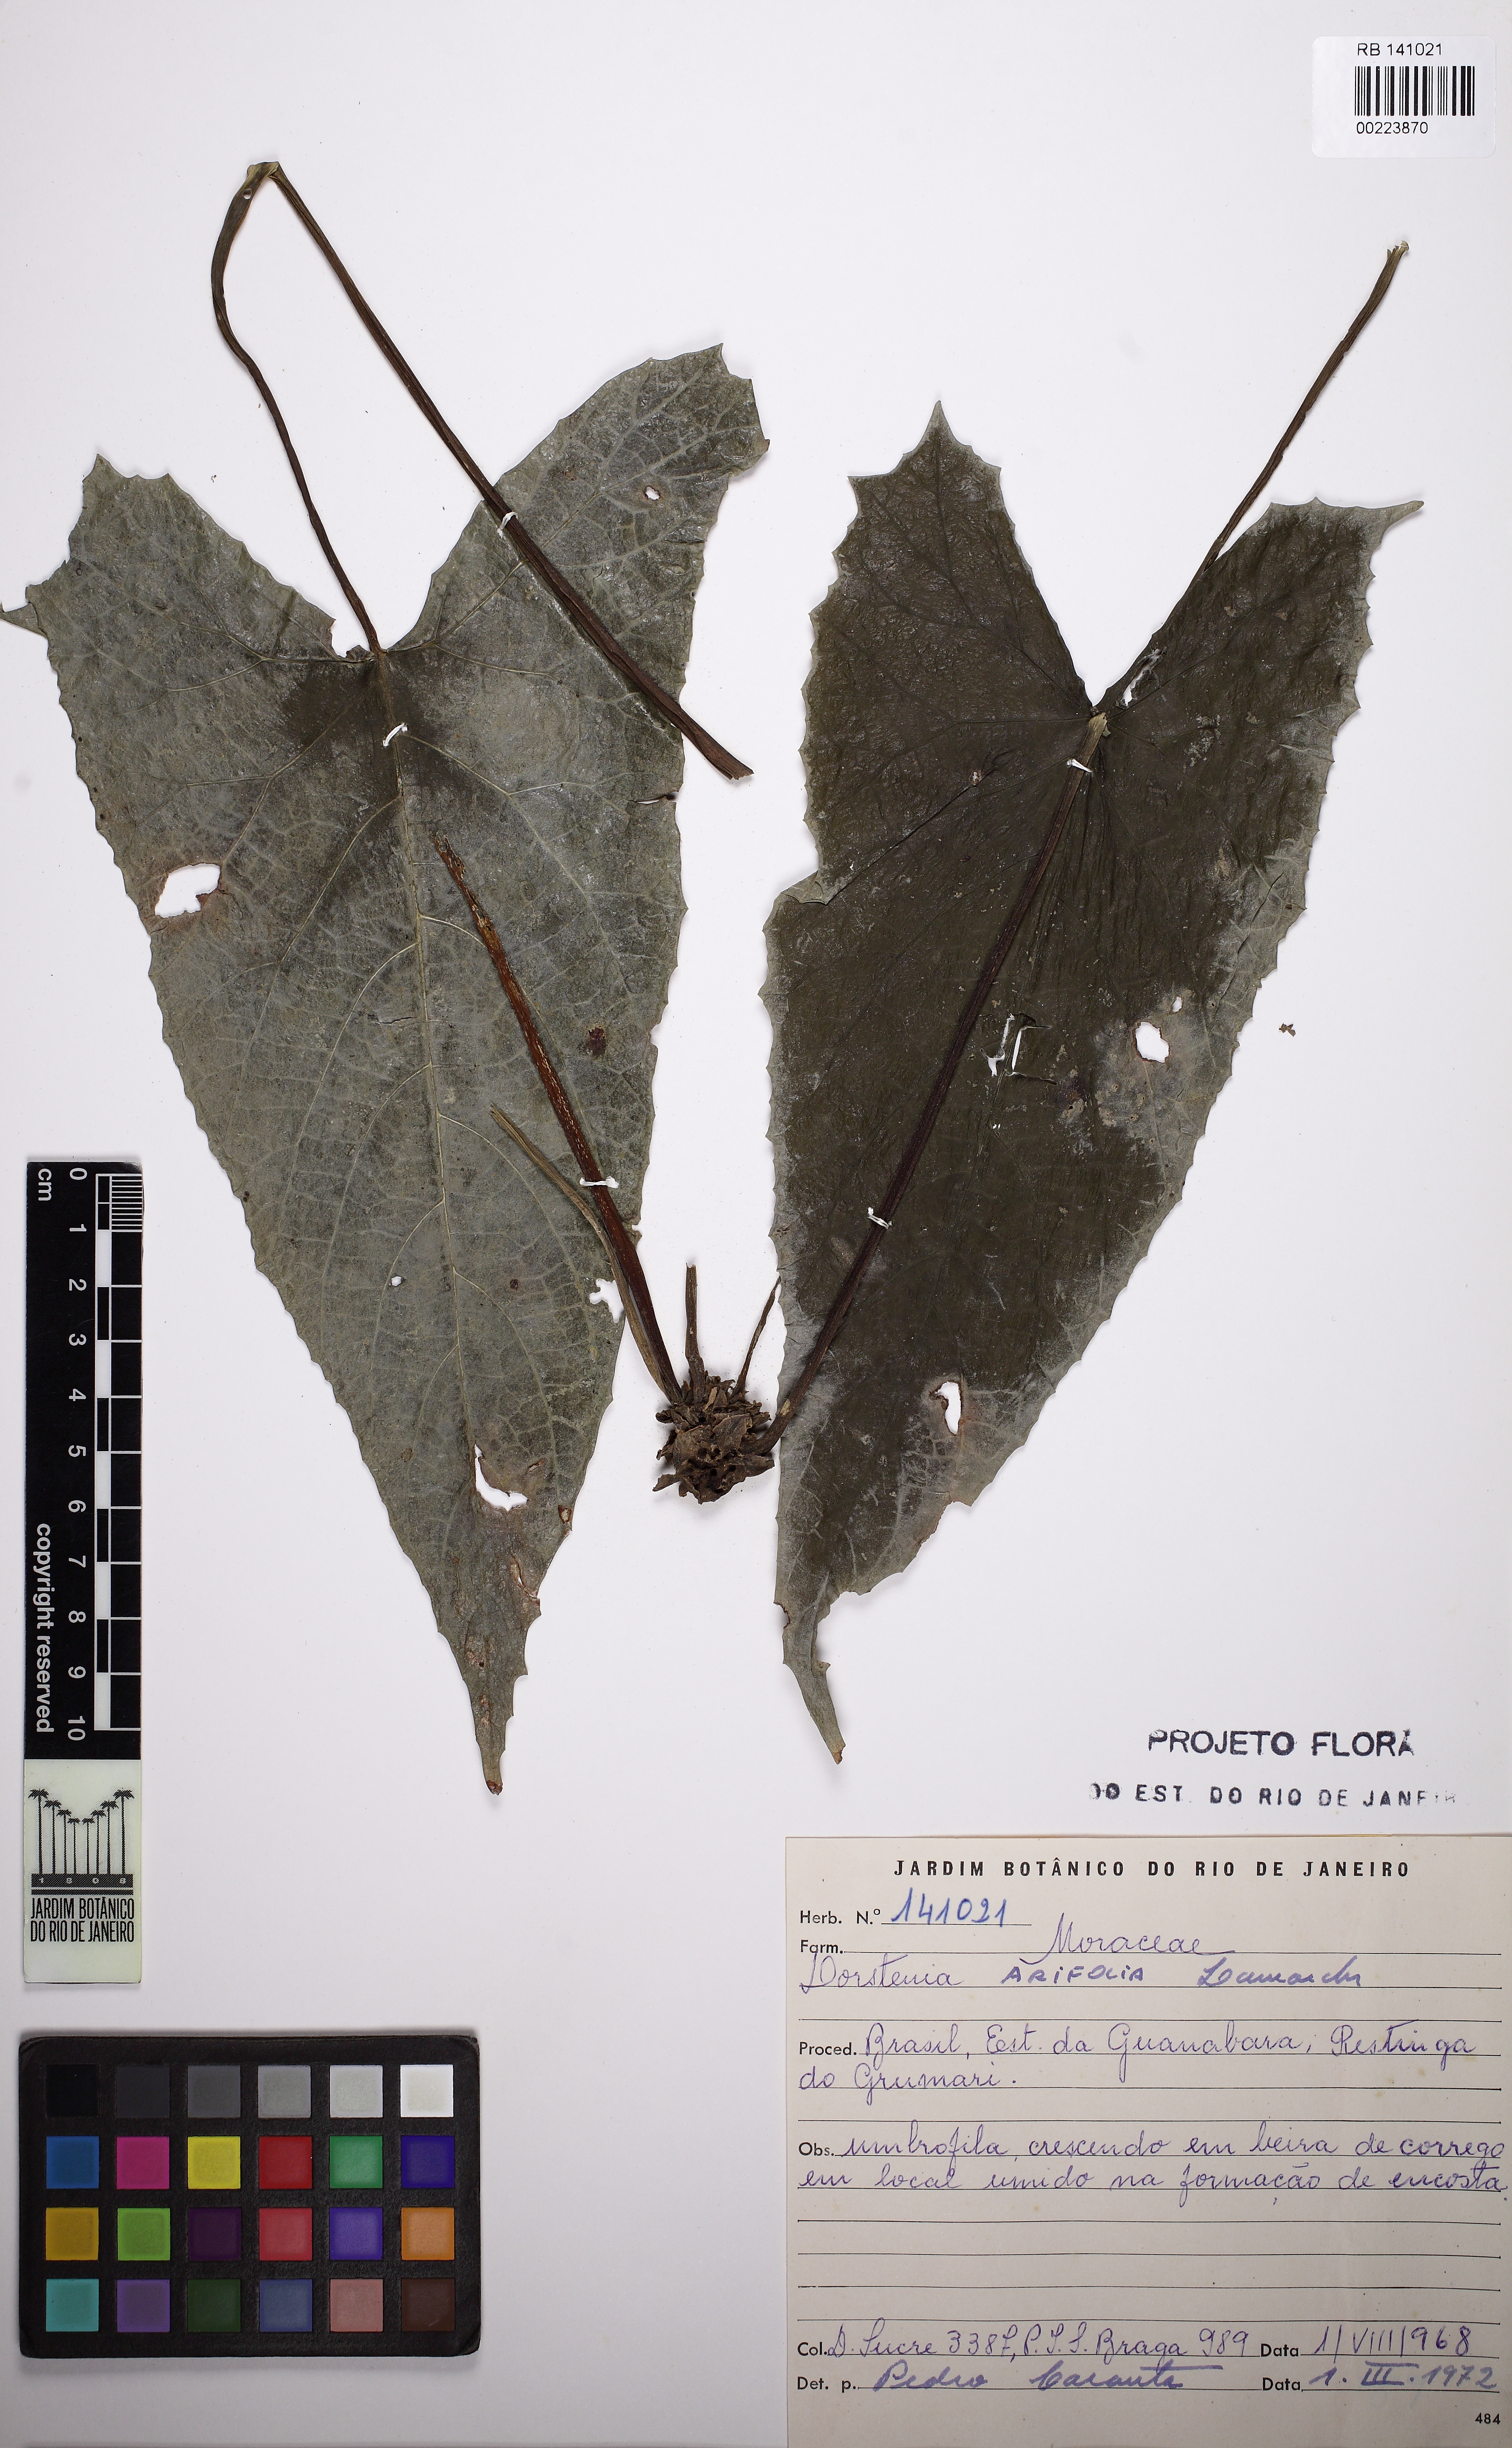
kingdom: Plantae
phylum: Tracheophyta
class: Magnoliopsida
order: Rosales
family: Moraceae
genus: Dorstenia
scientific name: Dorstenia arifolia
